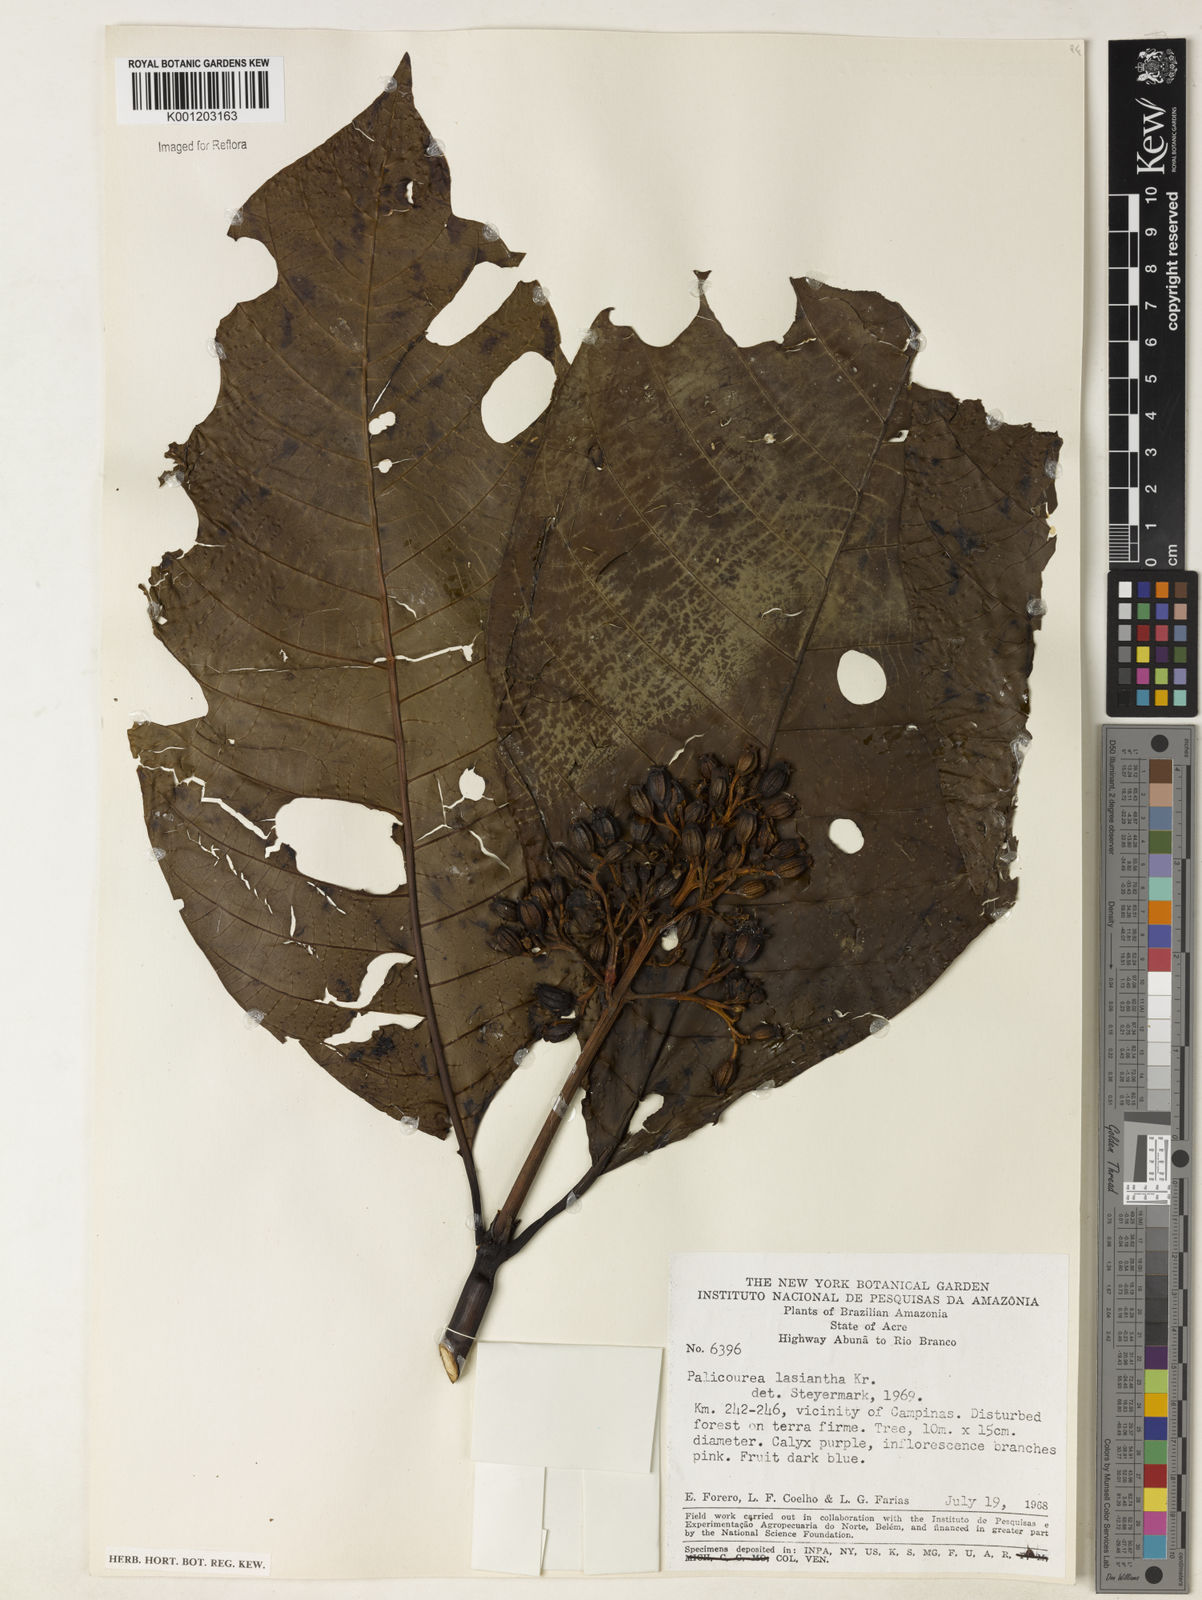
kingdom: Plantae
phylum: Tracheophyta
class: Magnoliopsida
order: Gentianales
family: Rubiaceae
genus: Palicourea
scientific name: Palicourea lasiantha
